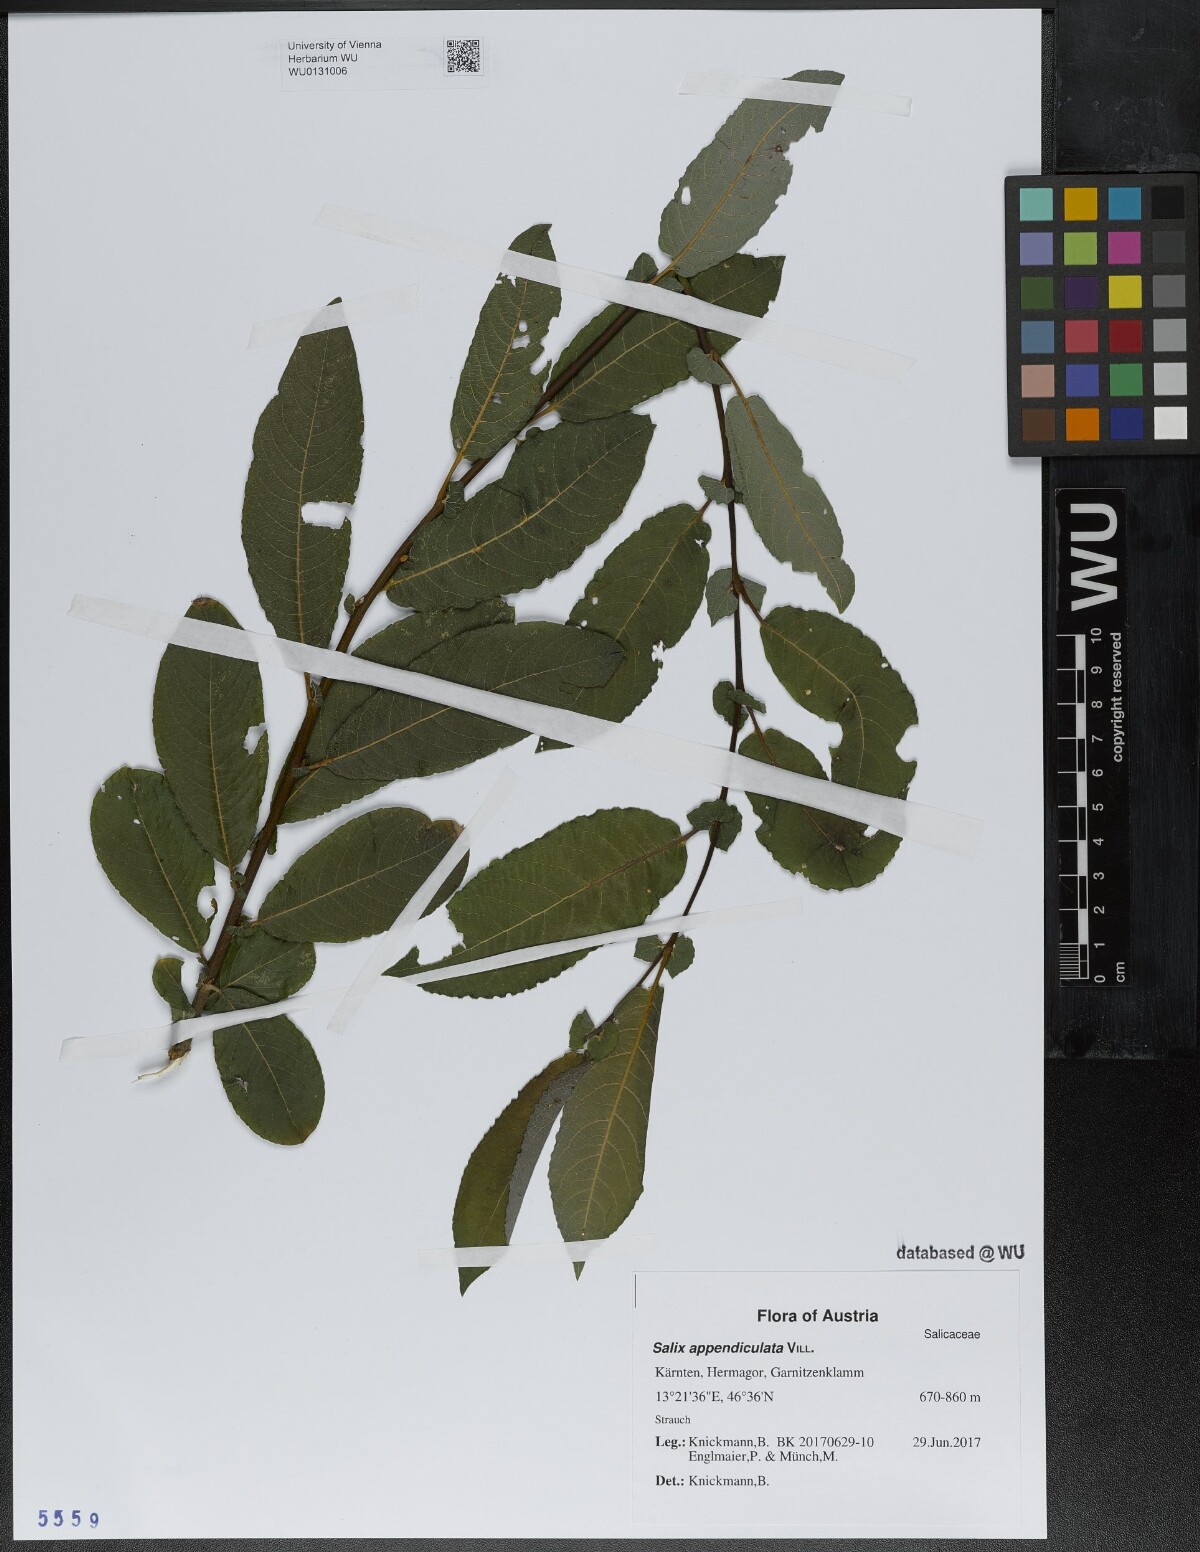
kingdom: Plantae
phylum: Tracheophyta
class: Magnoliopsida
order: Malpighiales
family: Salicaceae
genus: Salix
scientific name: Salix appendiculata
